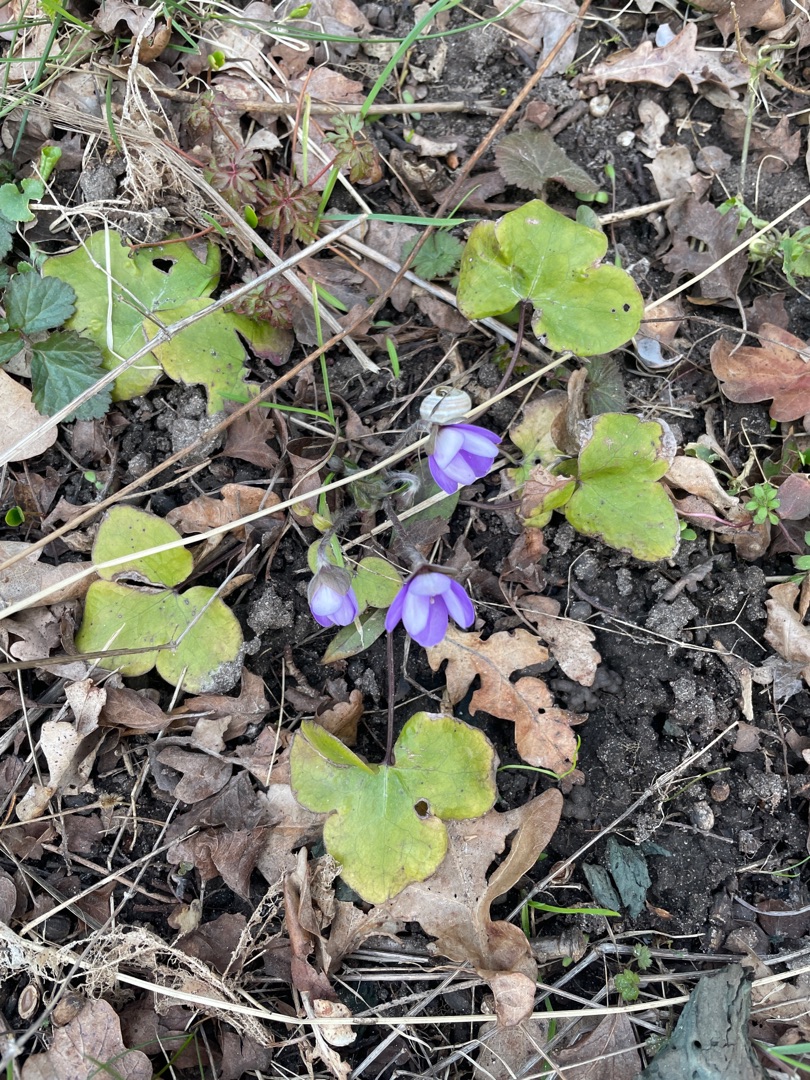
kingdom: Plantae
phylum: Tracheophyta
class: Magnoliopsida
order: Ranunculales
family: Ranunculaceae
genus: Hepatica
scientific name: Hepatica nobilis
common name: Blå anemone
